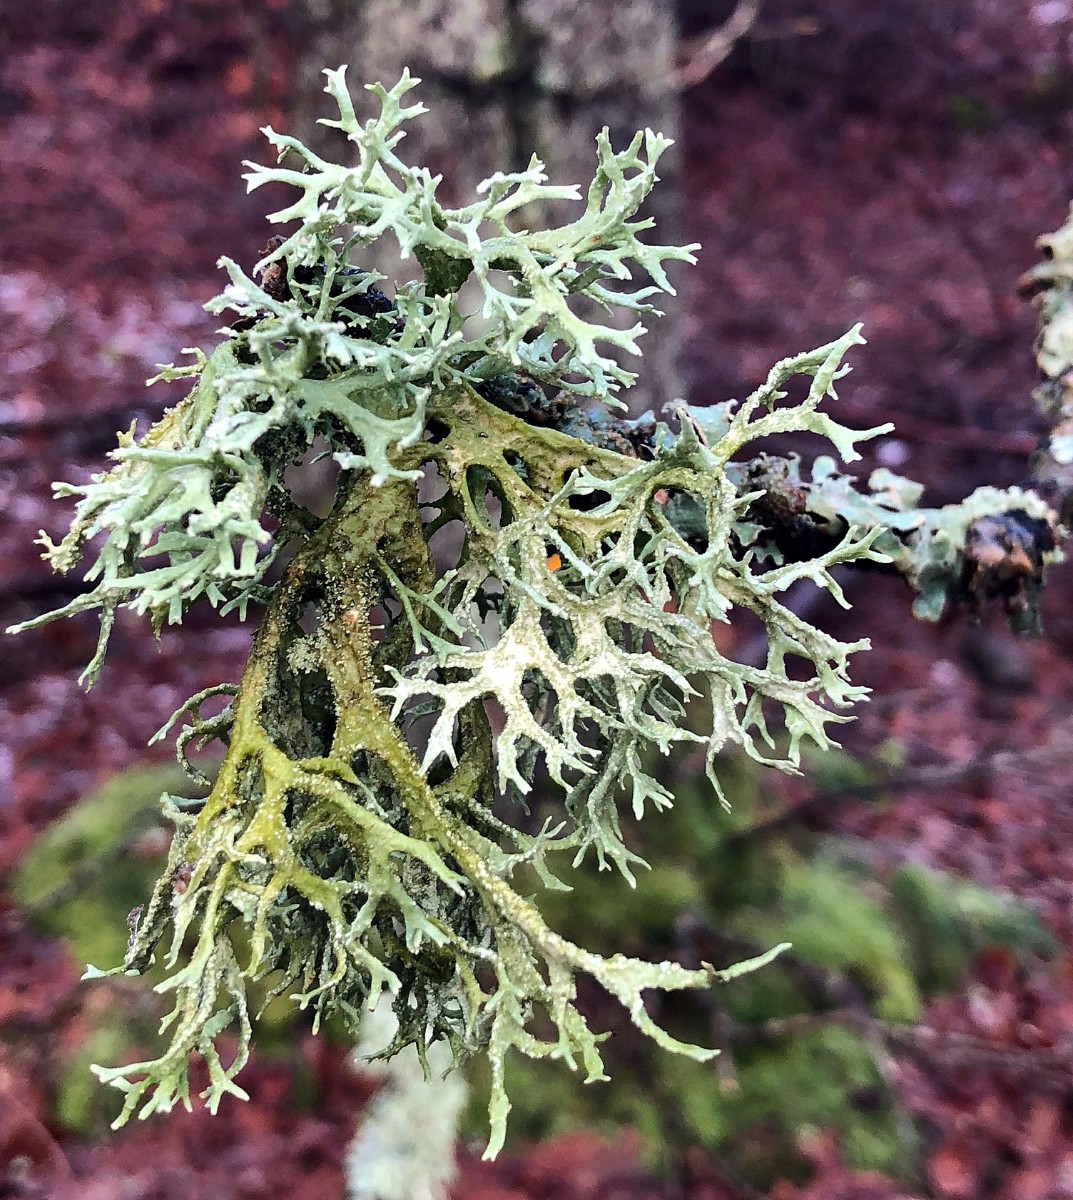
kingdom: Fungi
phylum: Ascomycota
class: Lecanoromycetes
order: Lecanorales
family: Parmeliaceae
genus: Evernia
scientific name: Evernia prunastri
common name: almindelig slåenlav
